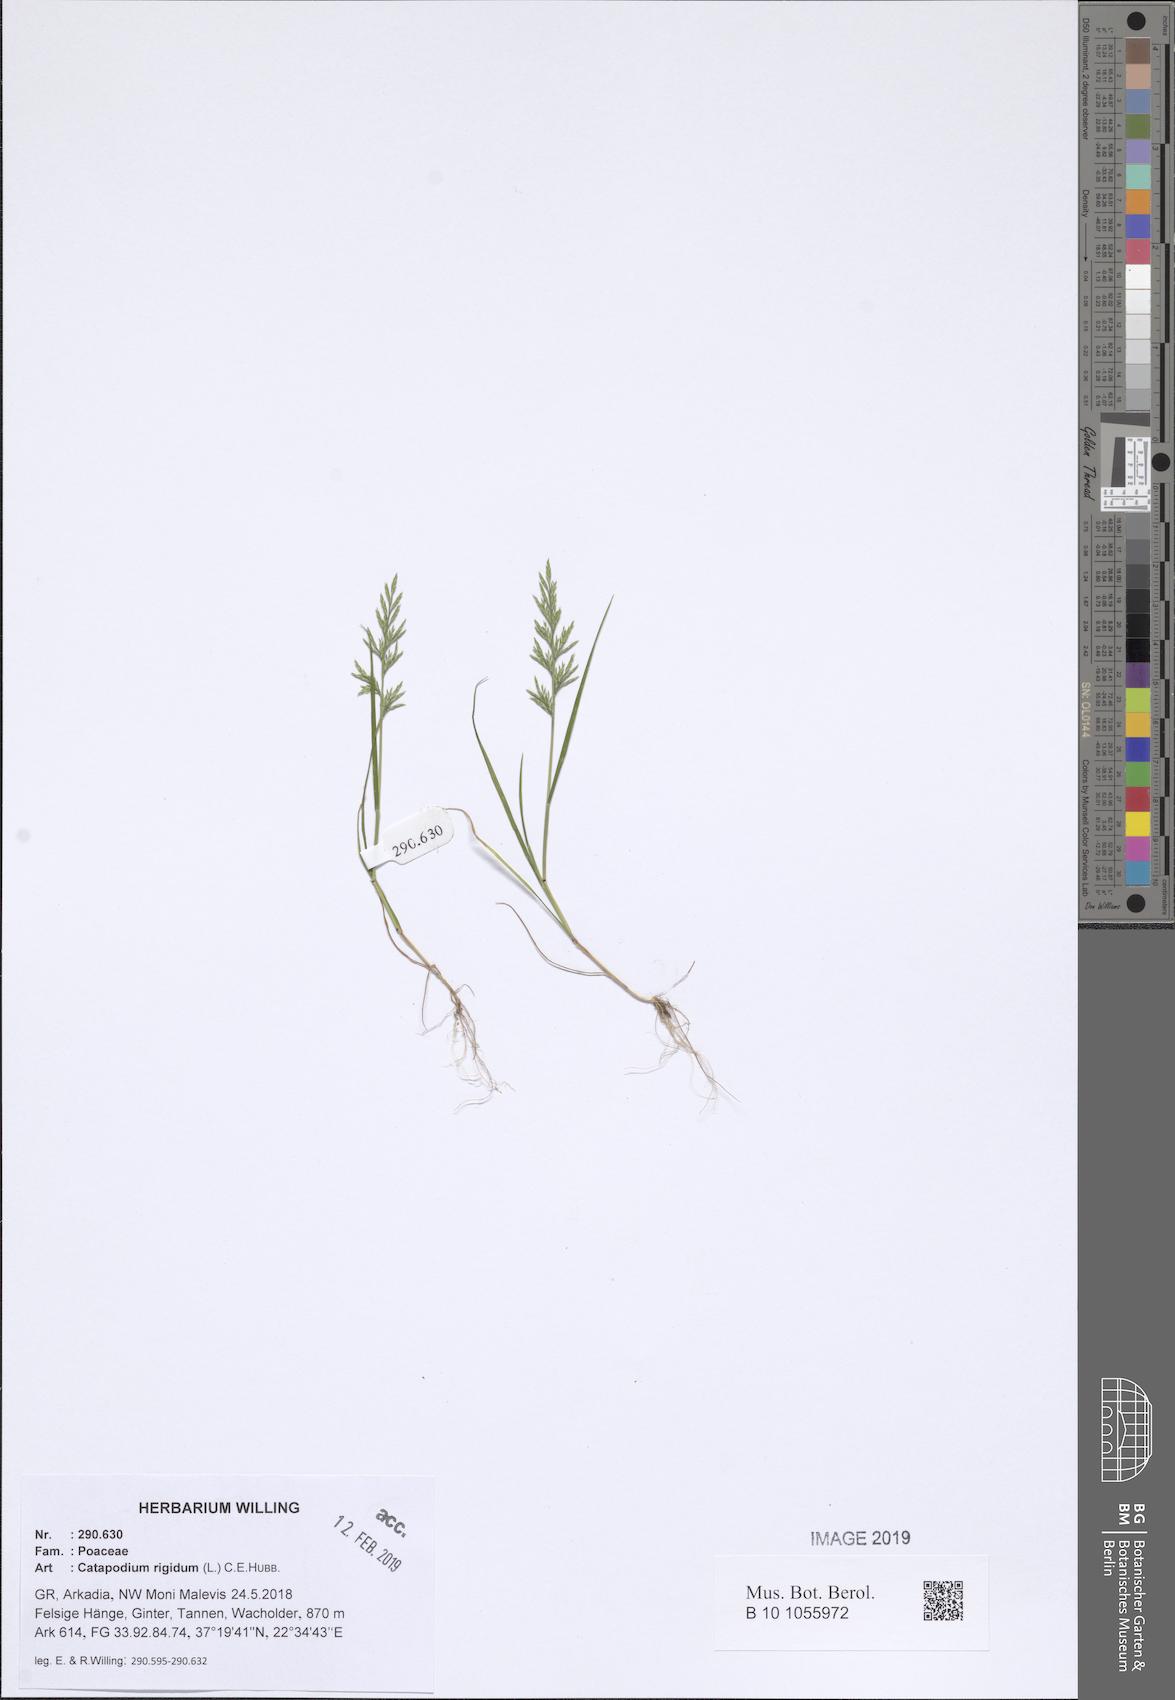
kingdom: Plantae
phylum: Tracheophyta
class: Liliopsida
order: Poales
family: Poaceae
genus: Catapodium
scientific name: Catapodium rigidum
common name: Fern-grass
